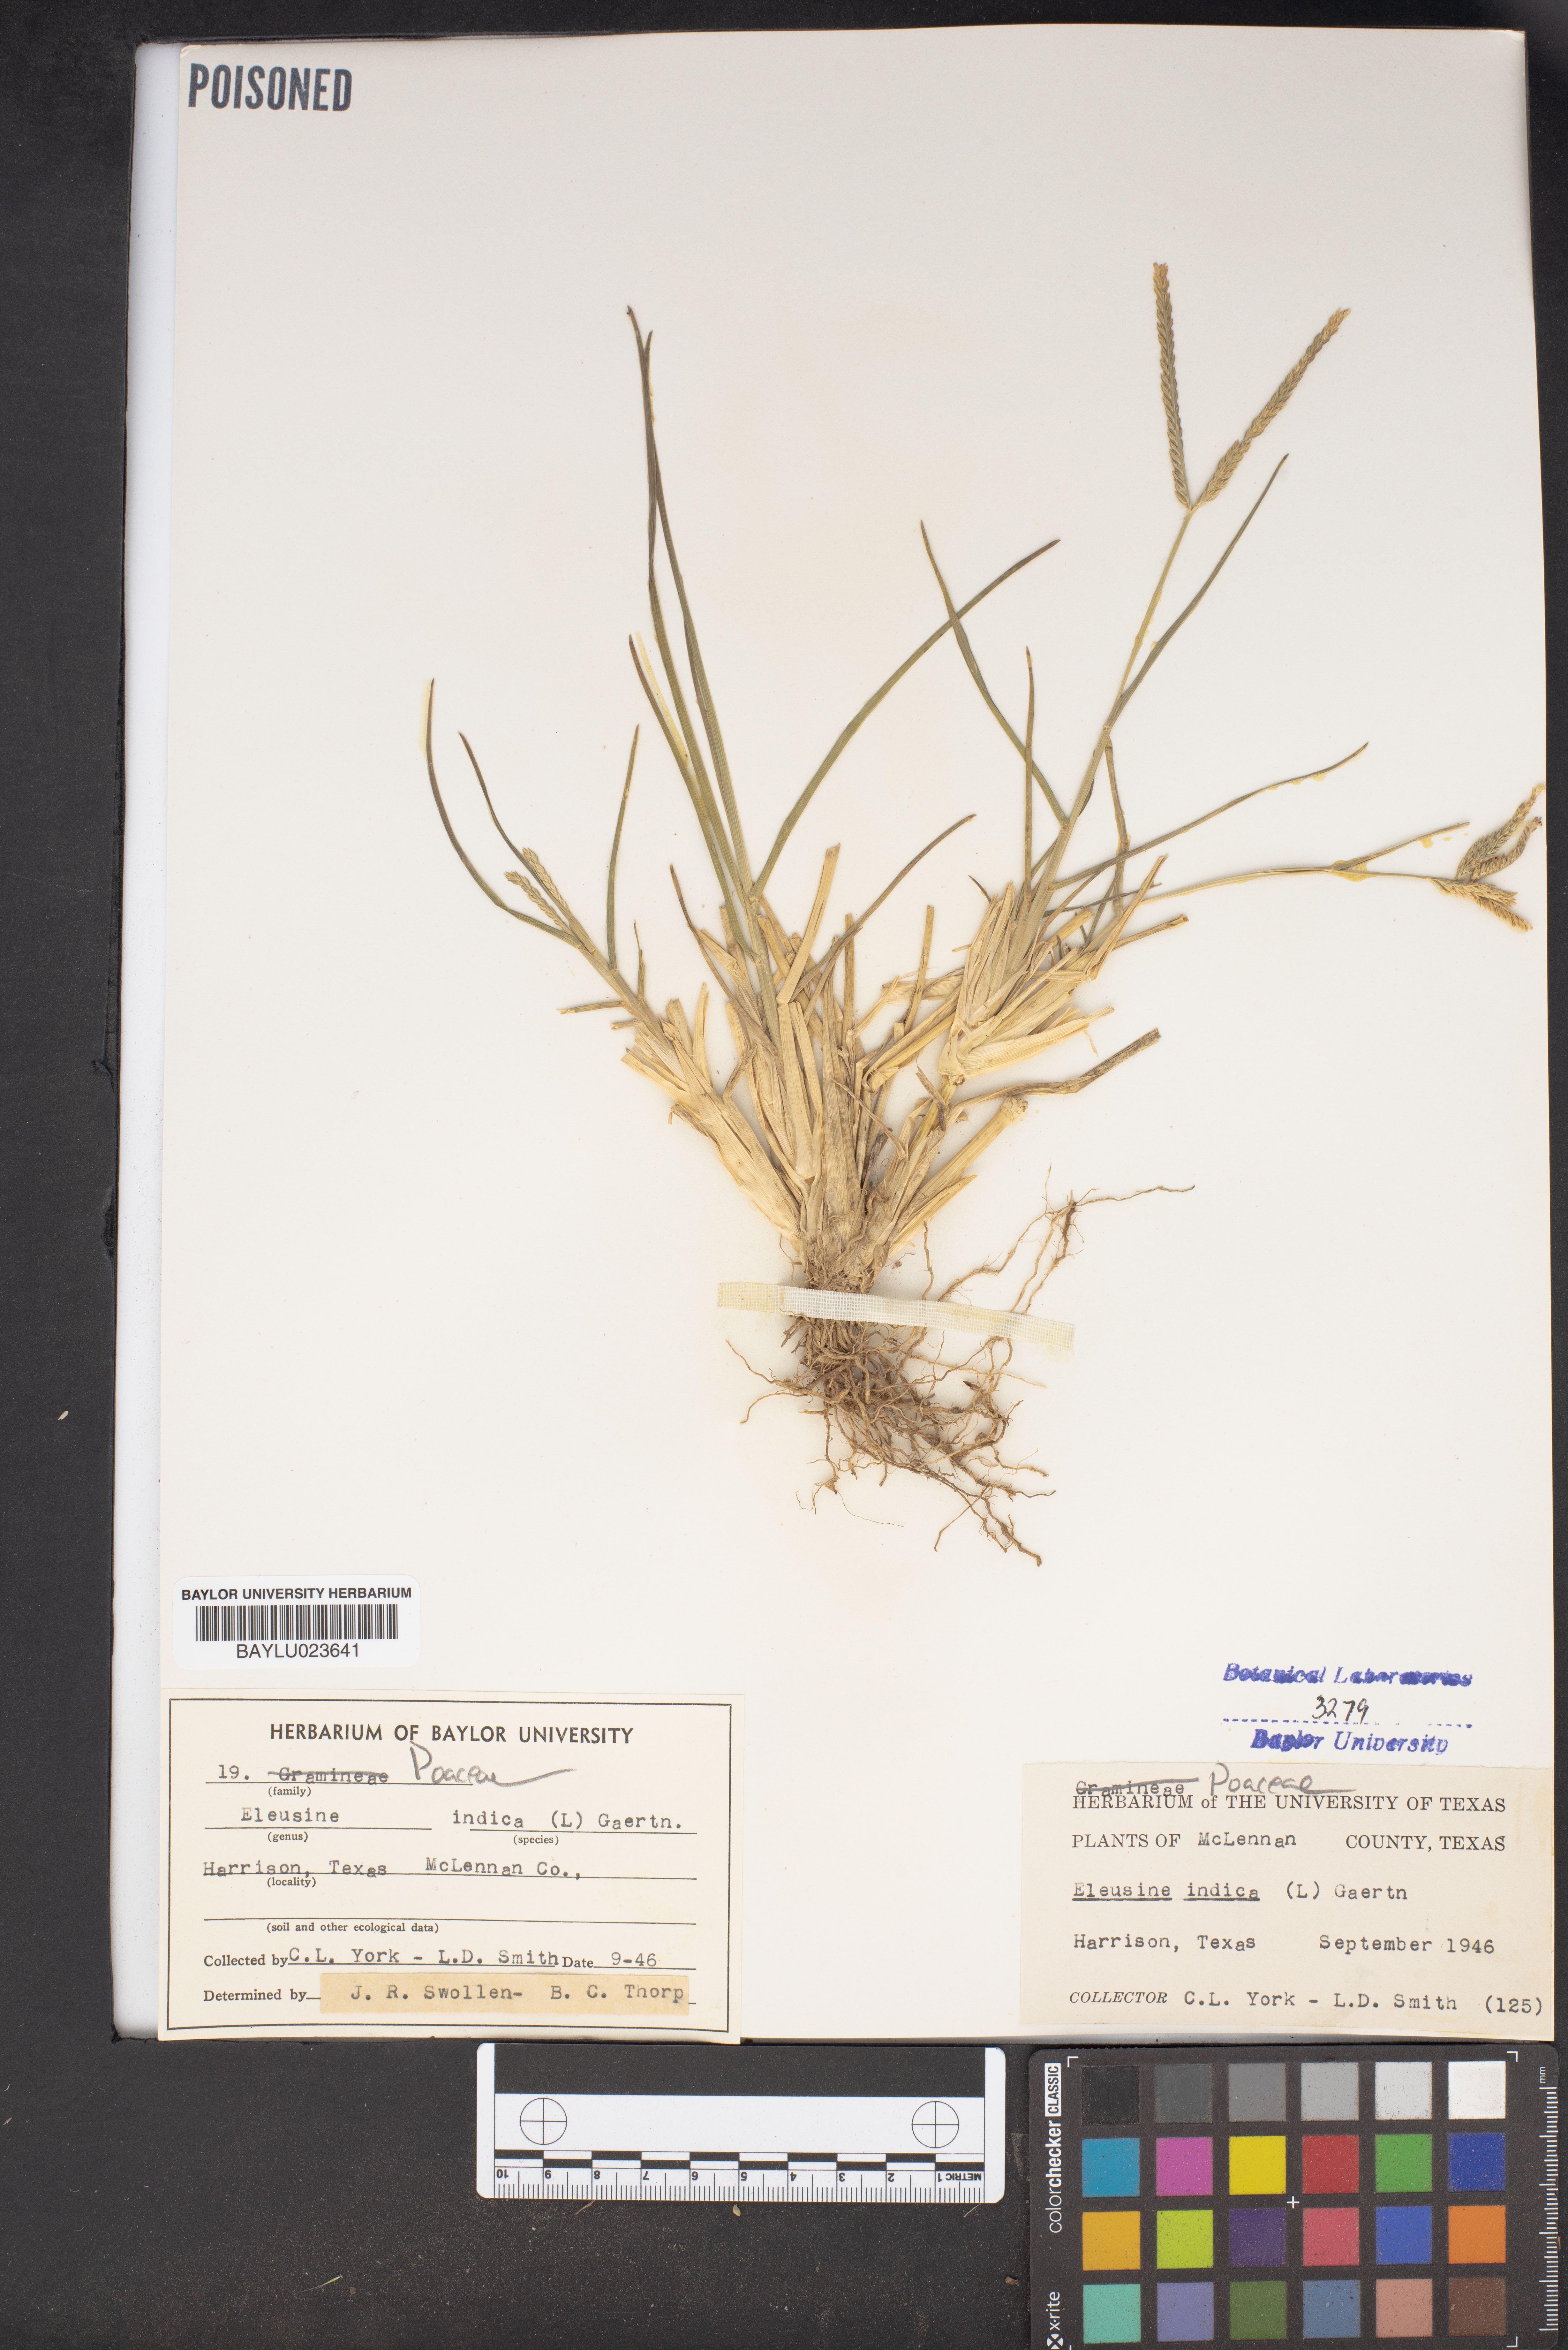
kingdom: Plantae
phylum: Tracheophyta
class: Liliopsida
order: Poales
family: Poaceae
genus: Eleusine
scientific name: Eleusine indica
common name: Yard-grass
